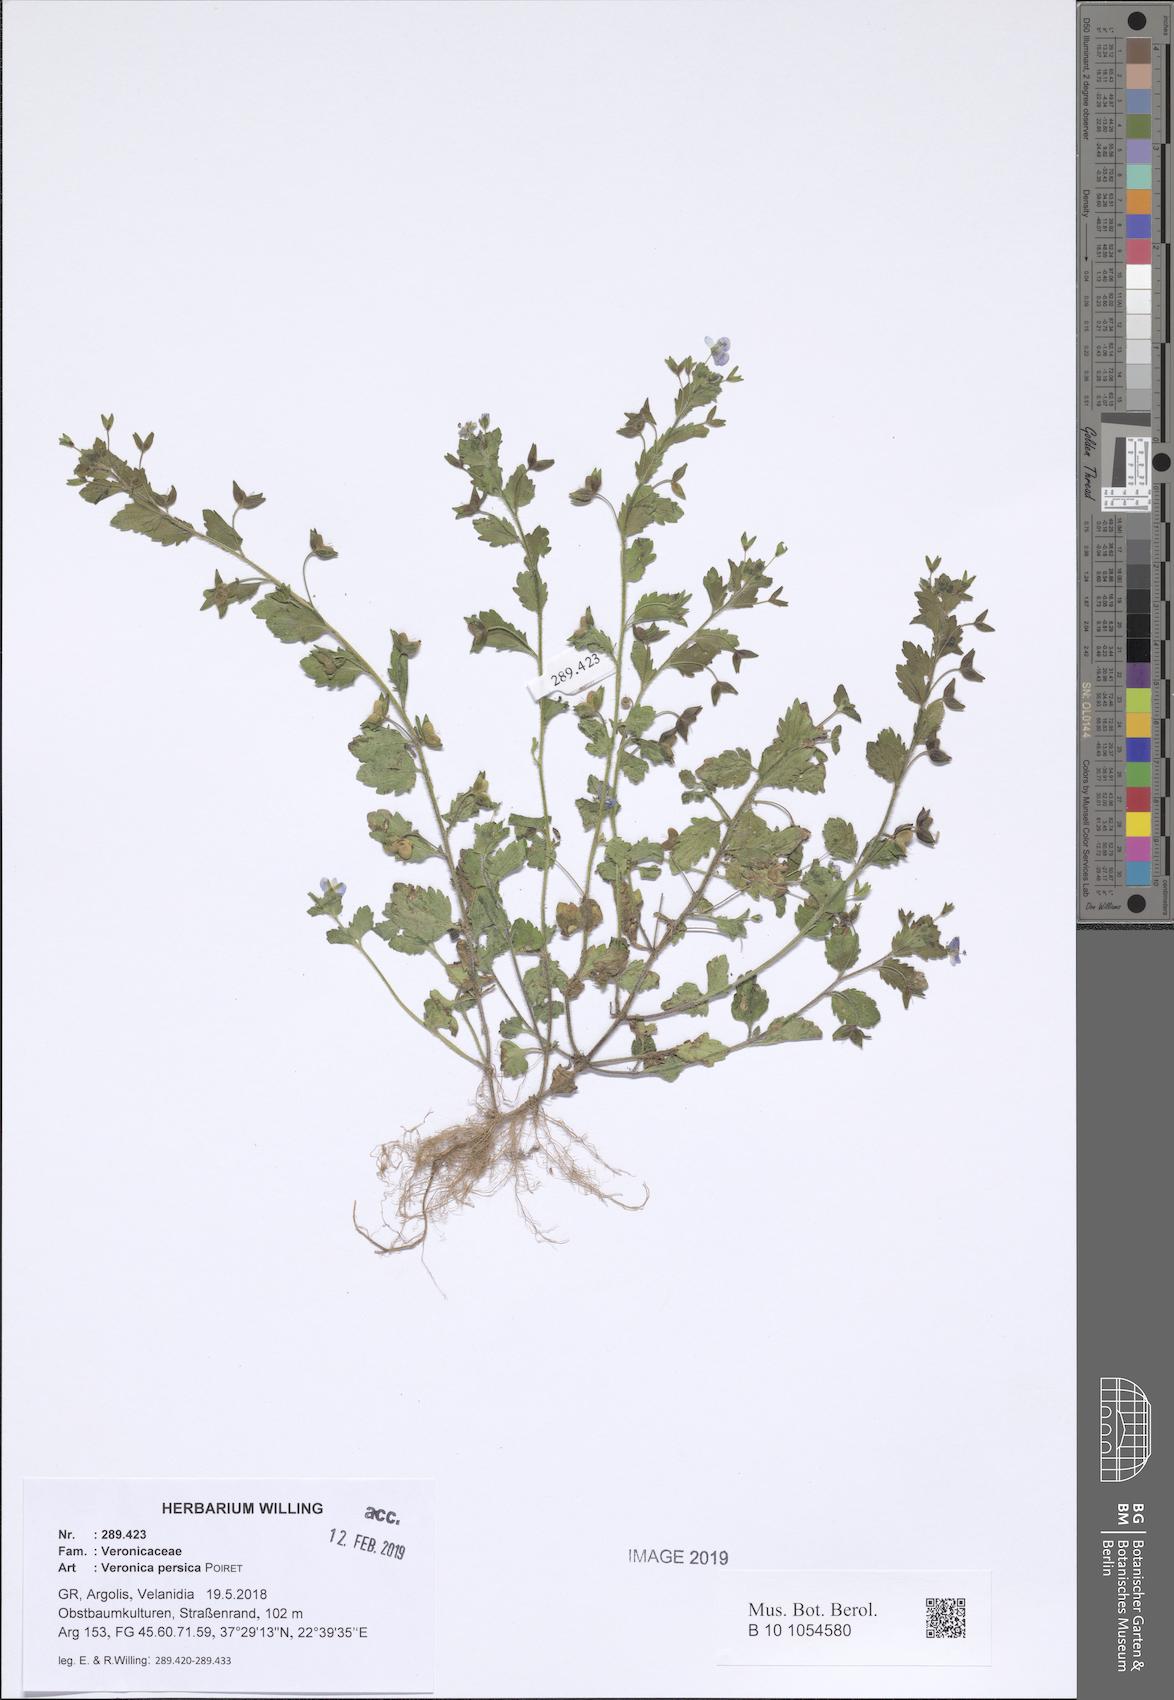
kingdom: Plantae
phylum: Tracheophyta
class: Magnoliopsida
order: Lamiales
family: Plantaginaceae
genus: Veronica
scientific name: Veronica persica
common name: Common field-speedwell
